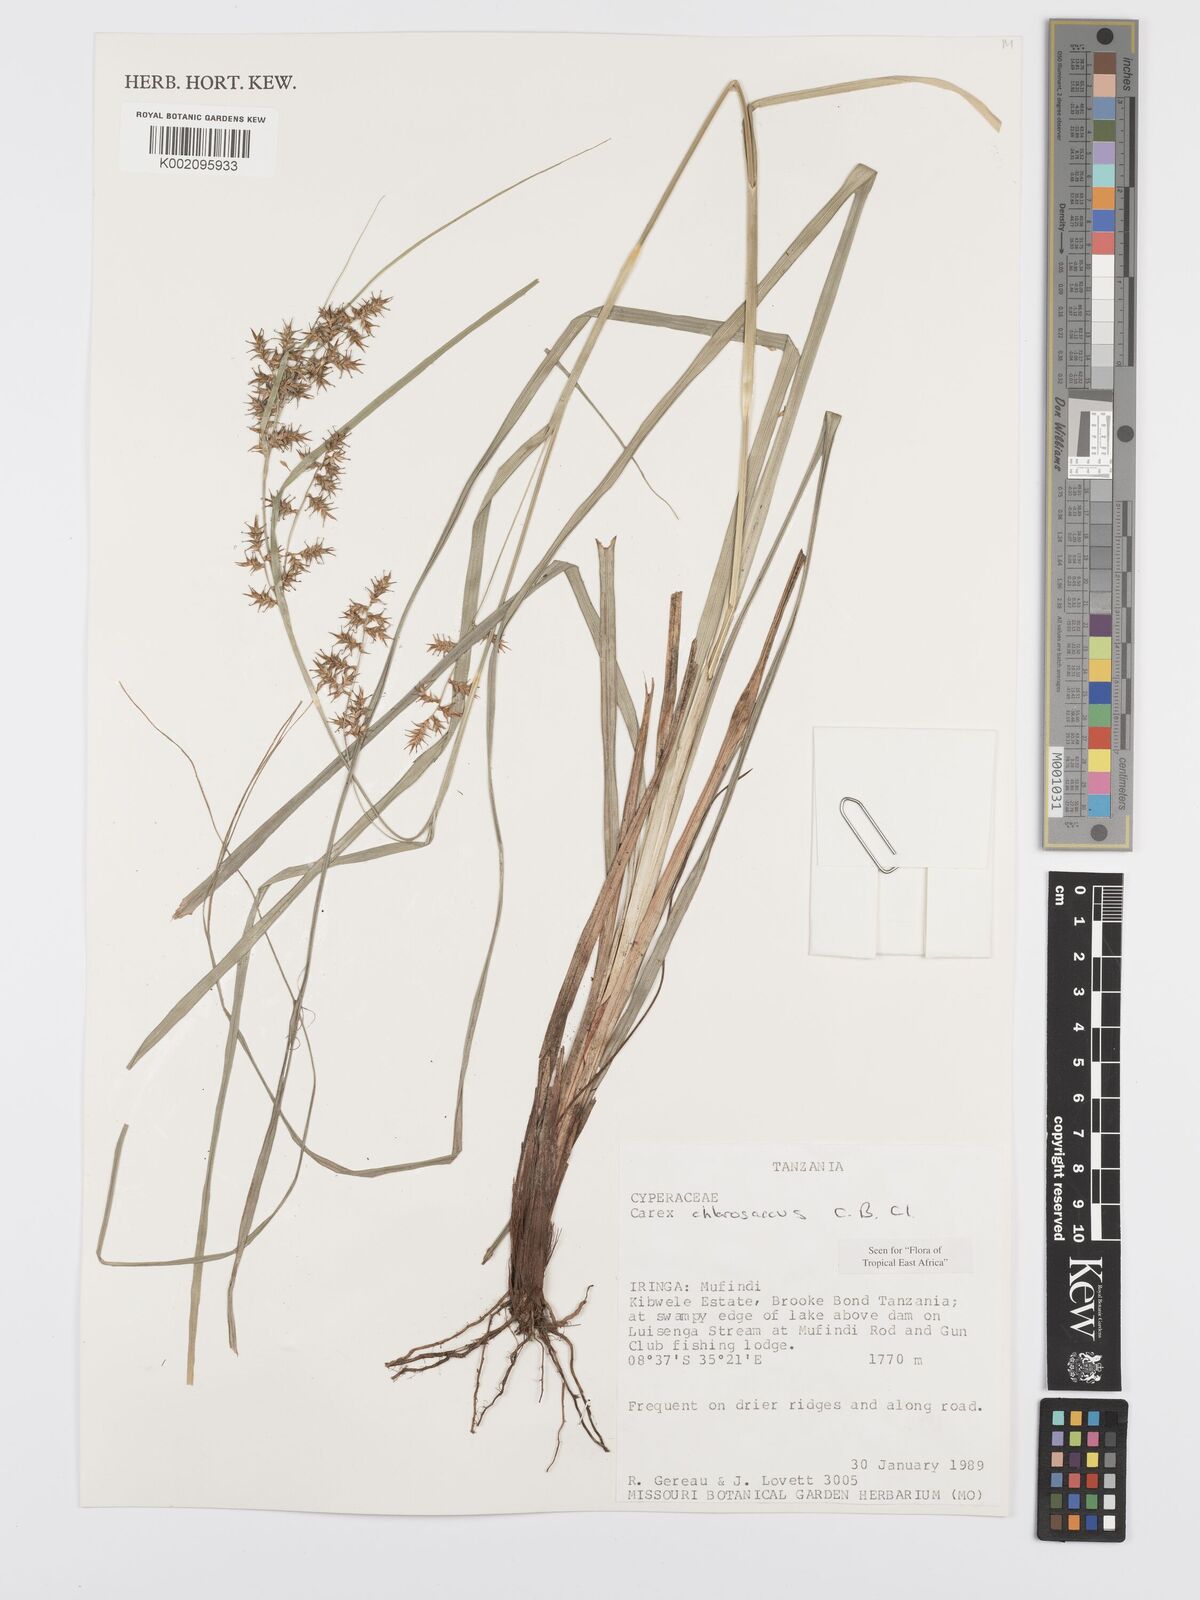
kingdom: Plantae
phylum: Tracheophyta
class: Liliopsida
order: Poales
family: Cyperaceae
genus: Carex
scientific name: Carex chlorosaccus
